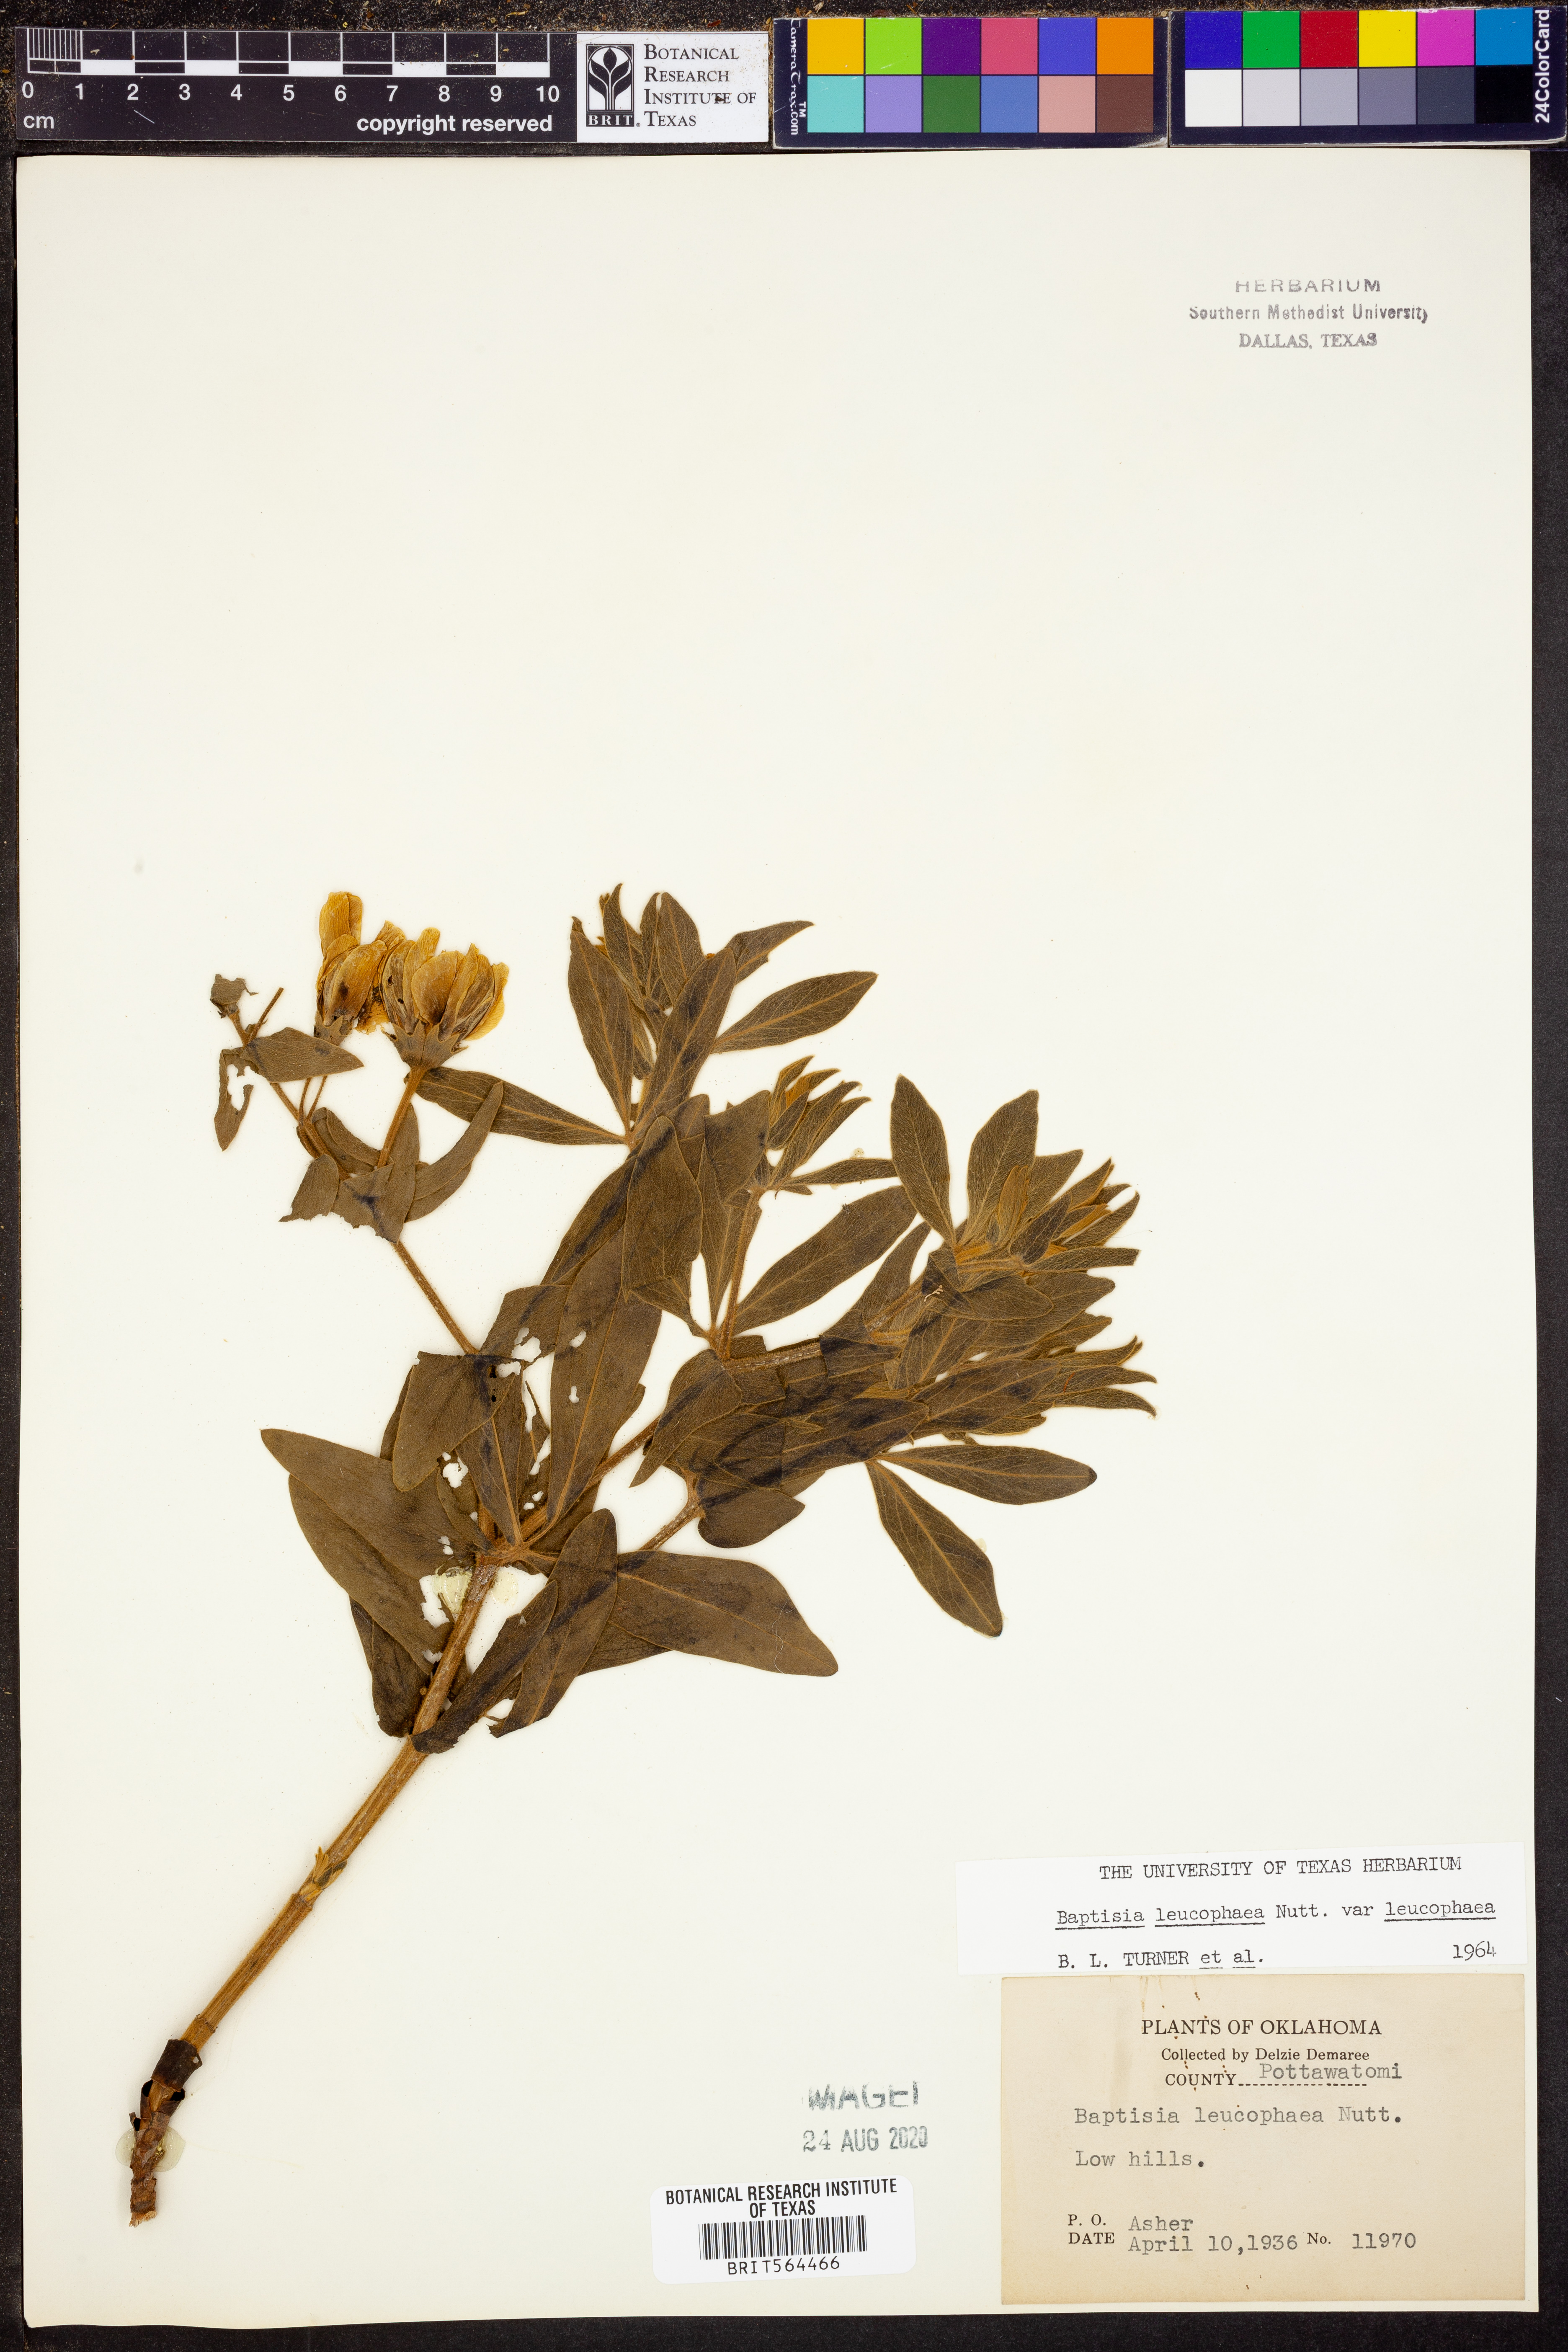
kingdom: Plantae
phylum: Tracheophyta
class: Magnoliopsida
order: Fabales
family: Fabaceae
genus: Baptisia
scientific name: Baptisia bracteata
